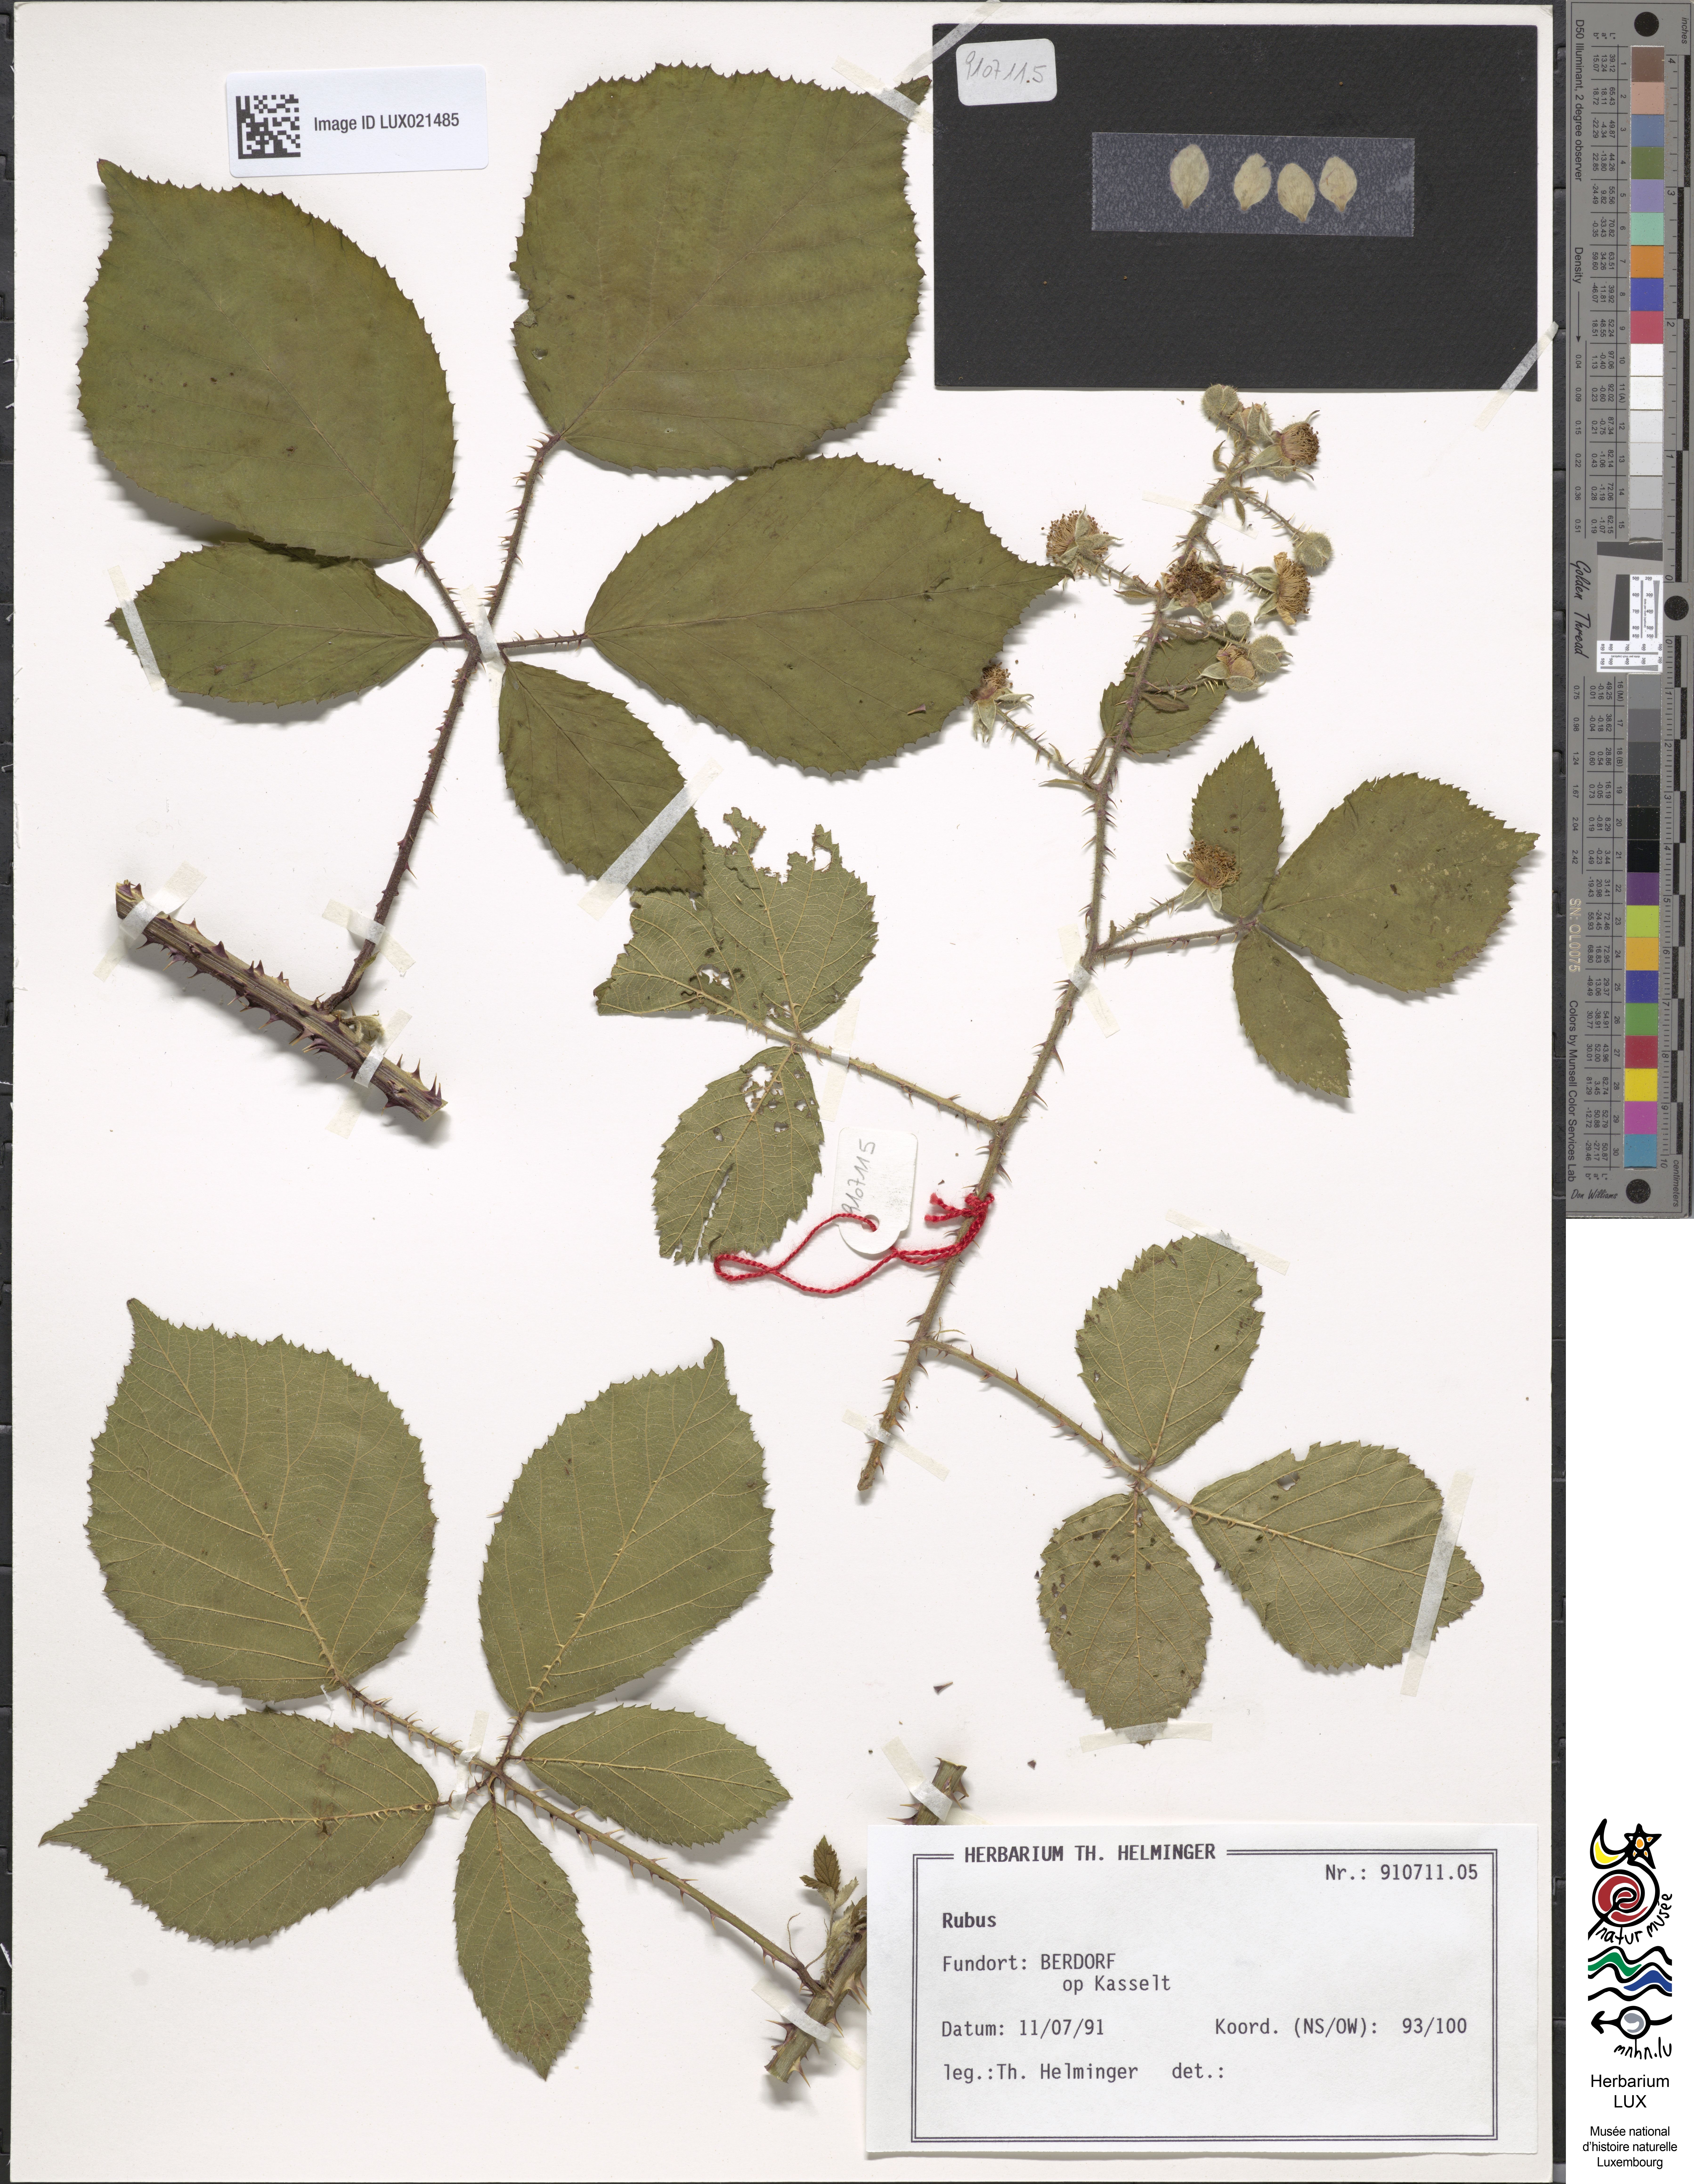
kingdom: Plantae
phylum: Tracheophyta
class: Magnoliopsida
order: Rosales
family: Rosaceae
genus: Rubus
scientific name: Rubus
